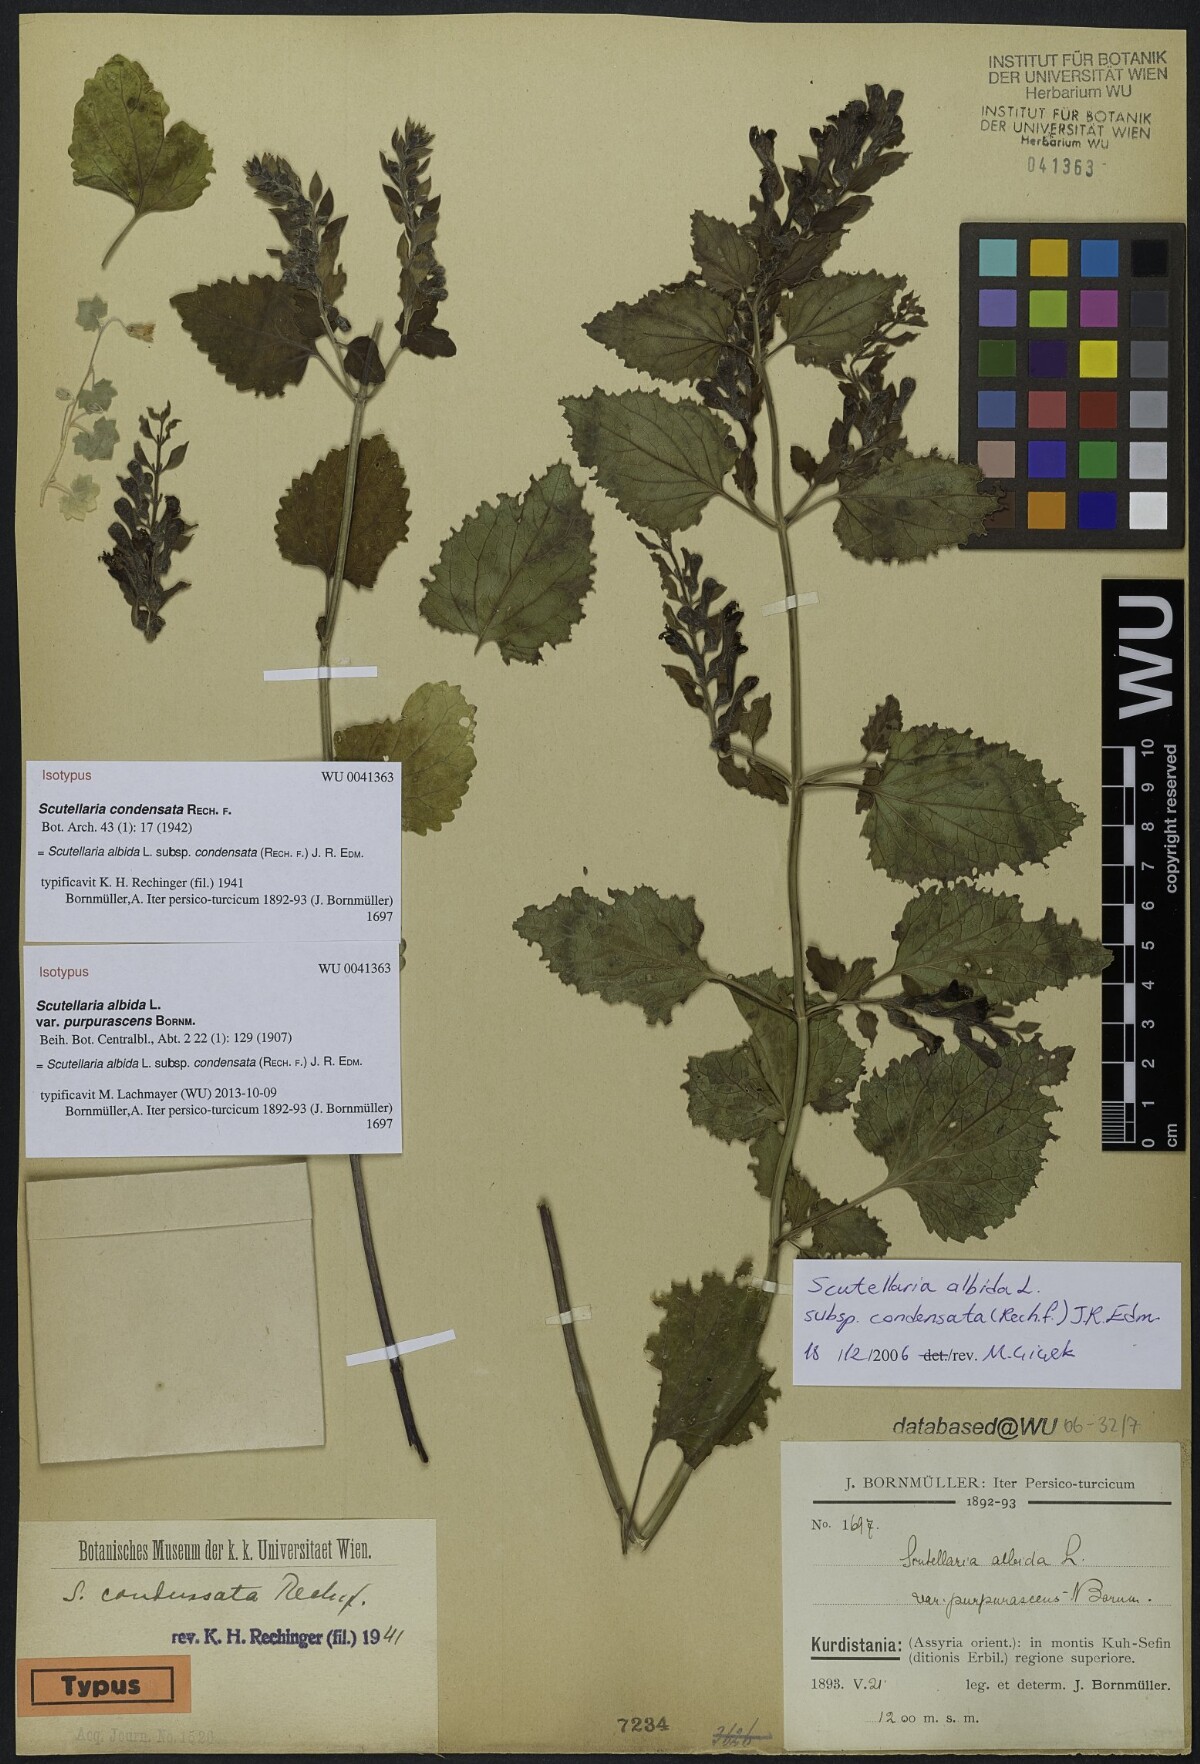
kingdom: Plantae
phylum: Tracheophyta
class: Magnoliopsida
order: Lamiales
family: Lamiaceae
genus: Scutellaria
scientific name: Scutellaria albida
